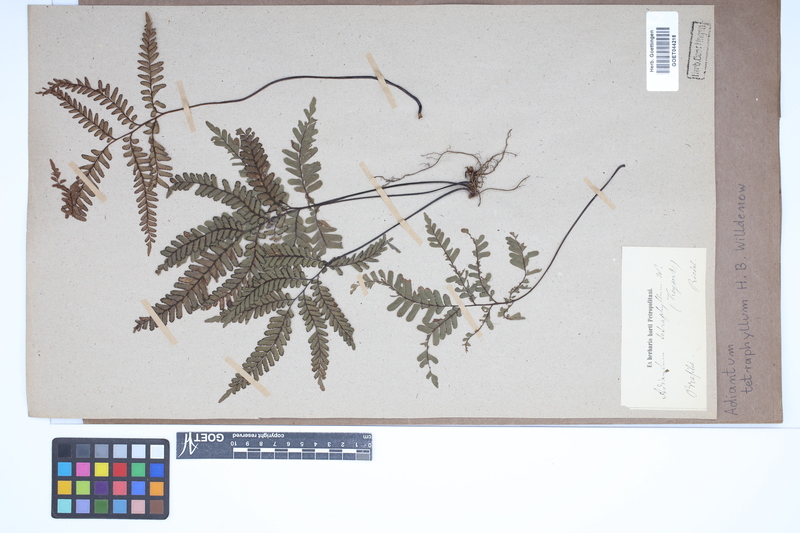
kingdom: Plantae
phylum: Tracheophyta
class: Polypodiopsida
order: Polypodiales
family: Pteridaceae
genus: Adiantum
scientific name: Adiantum tetraphyllum
